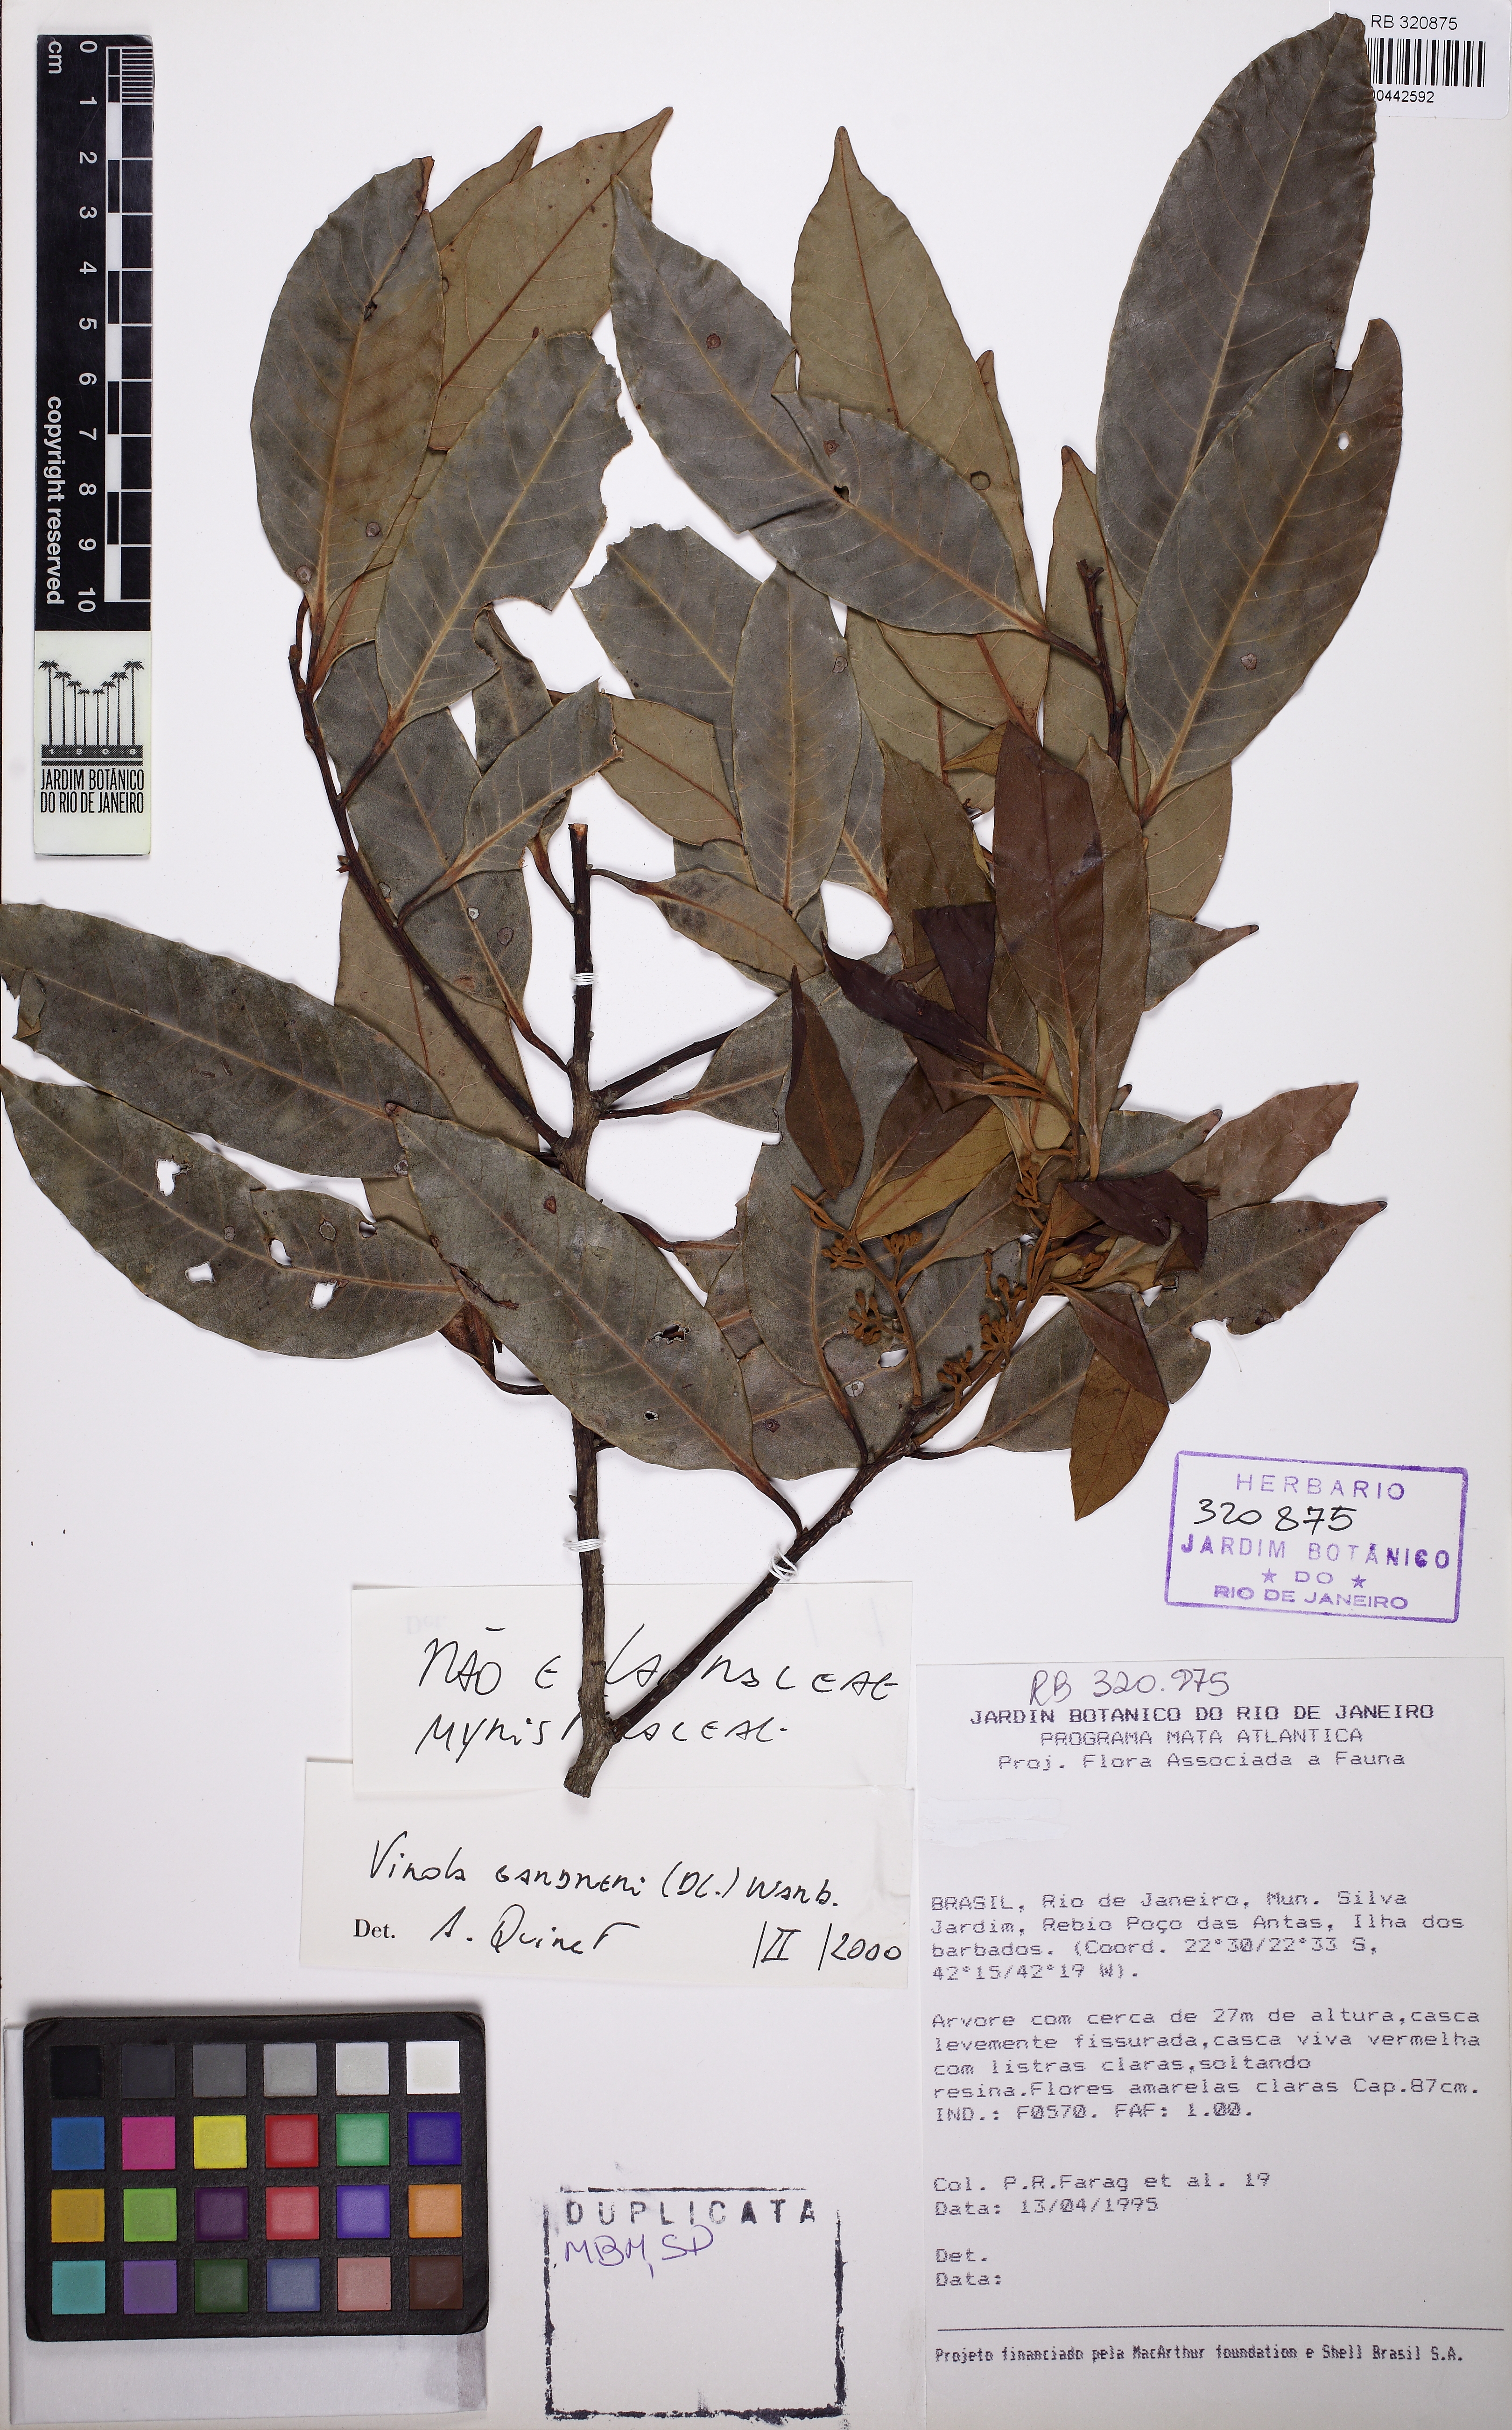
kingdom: Plantae
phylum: Tracheophyta
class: Magnoliopsida
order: Magnoliales
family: Myristicaceae
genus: Virola
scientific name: Virola gardneri
